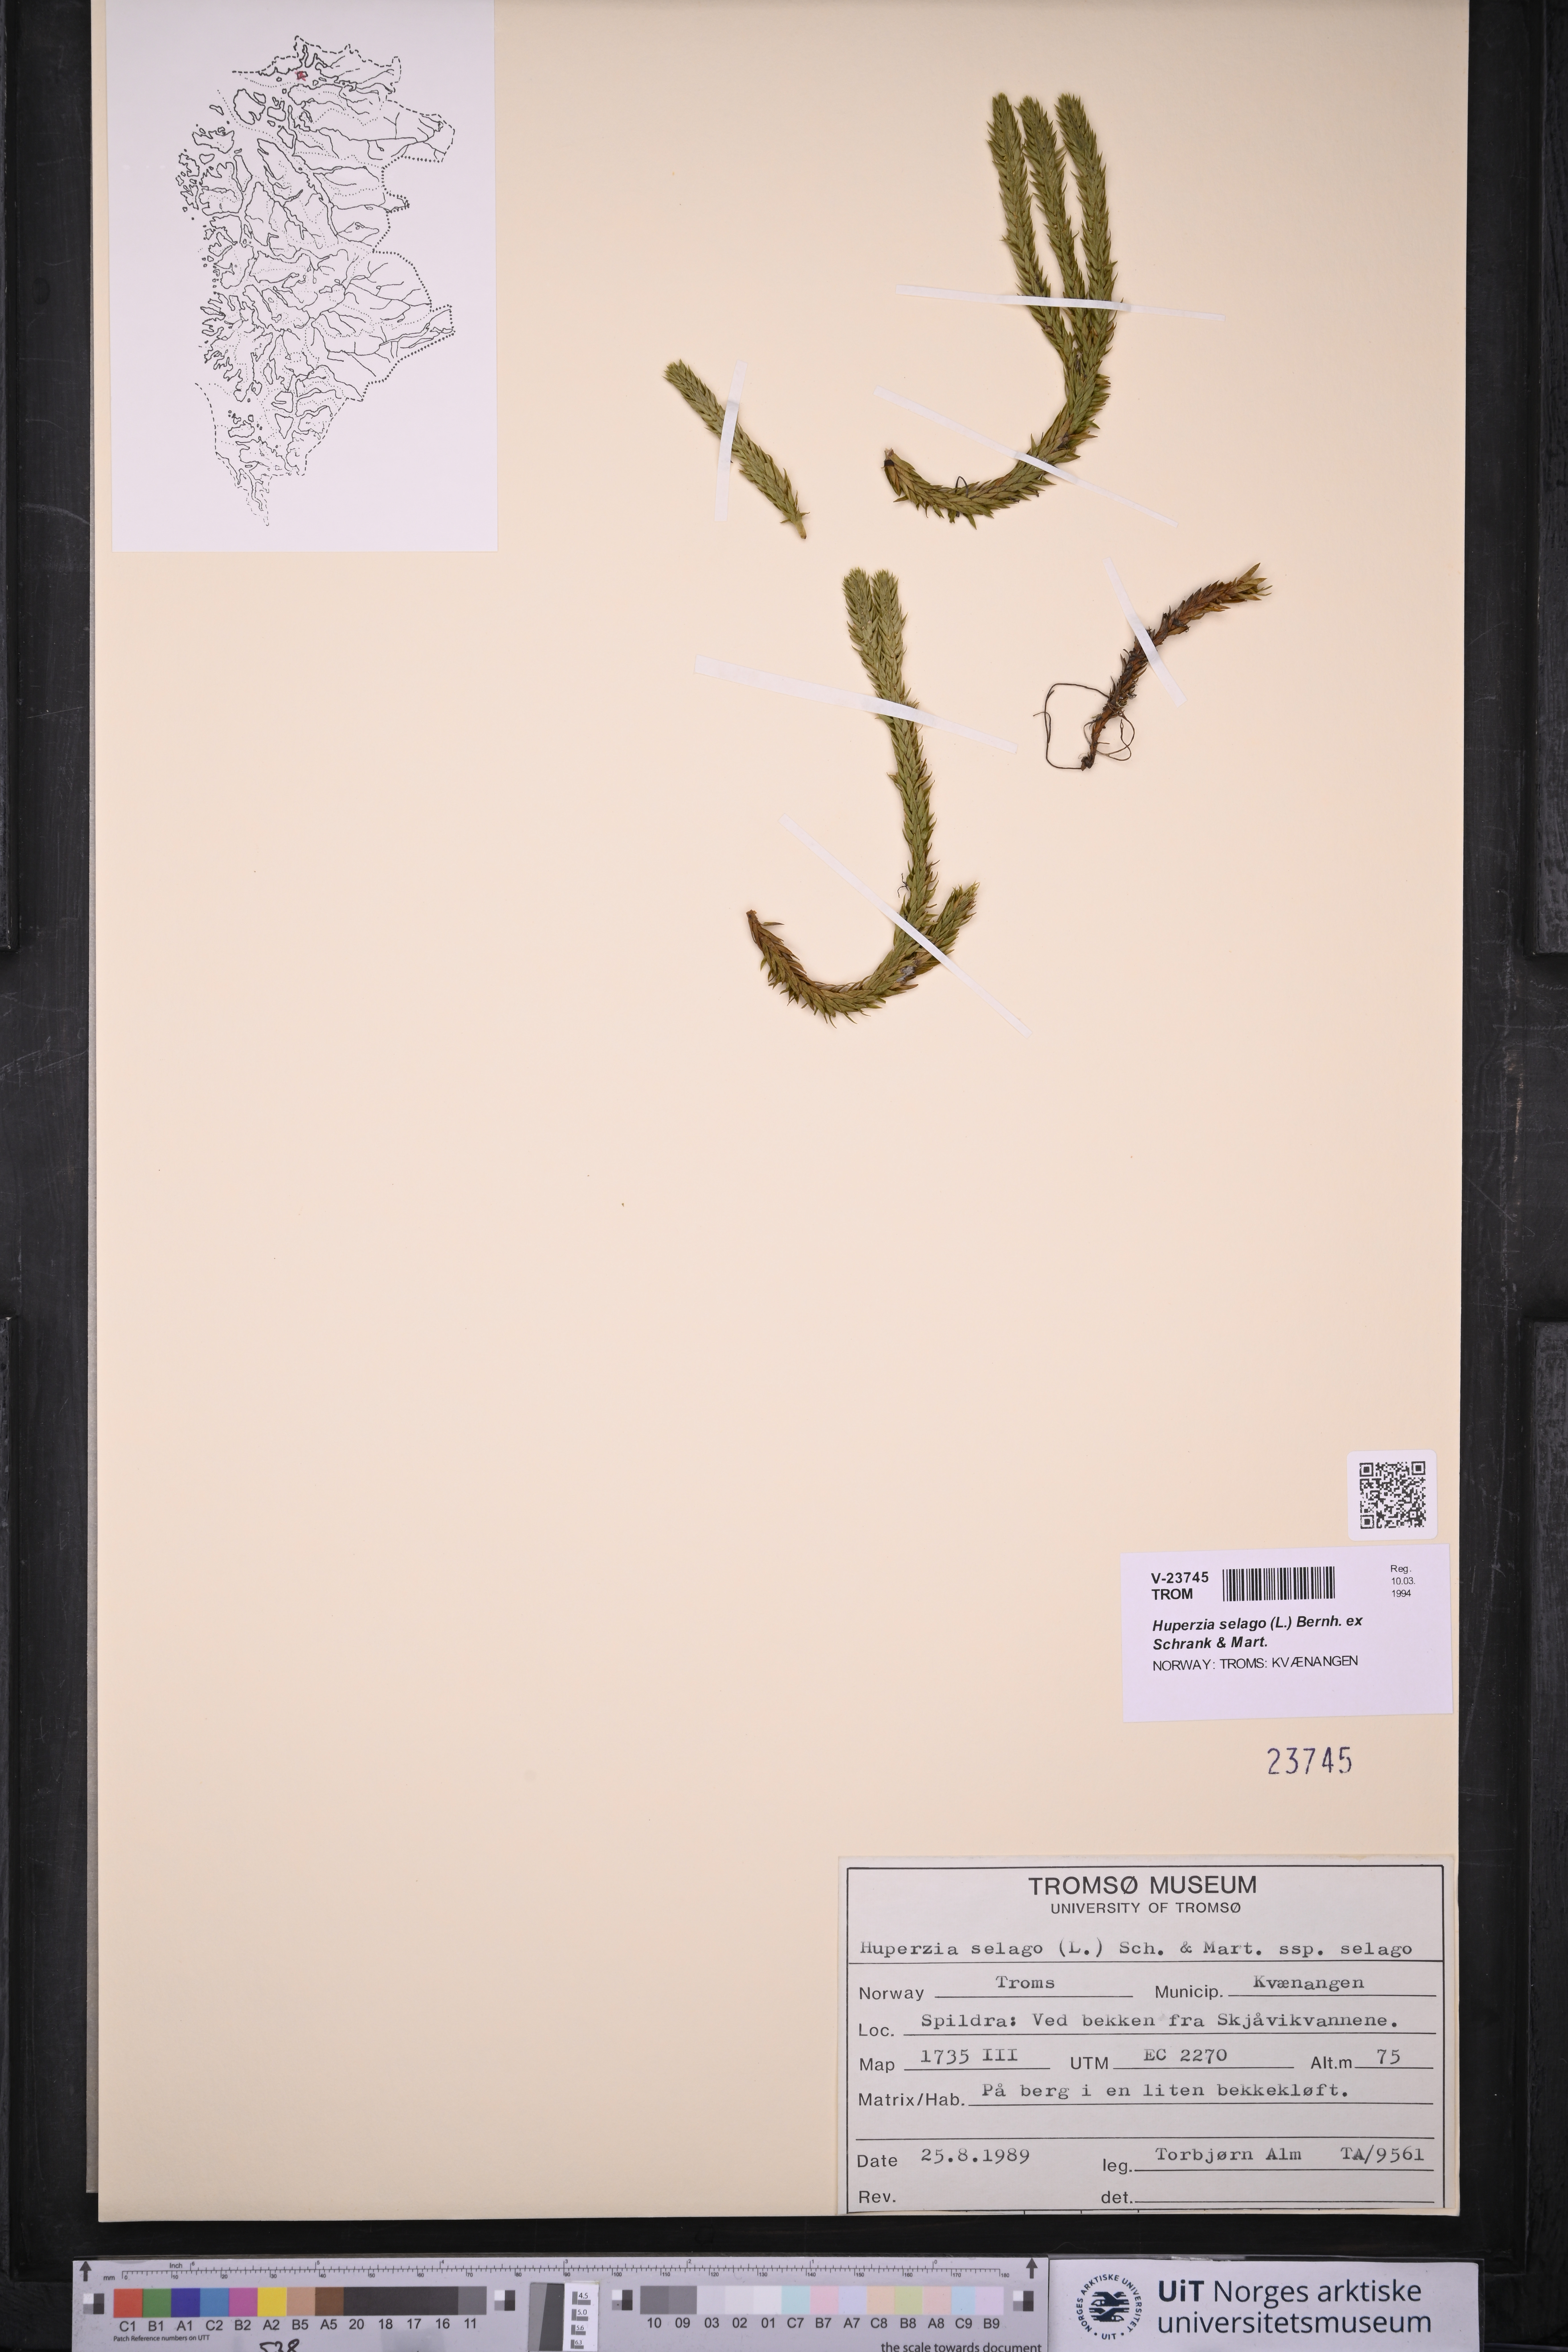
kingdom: Plantae
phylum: Tracheophyta
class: Lycopodiopsida
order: Lycopodiales
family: Lycopodiaceae
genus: Huperzia
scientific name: Huperzia selago
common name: Northern firmoss
